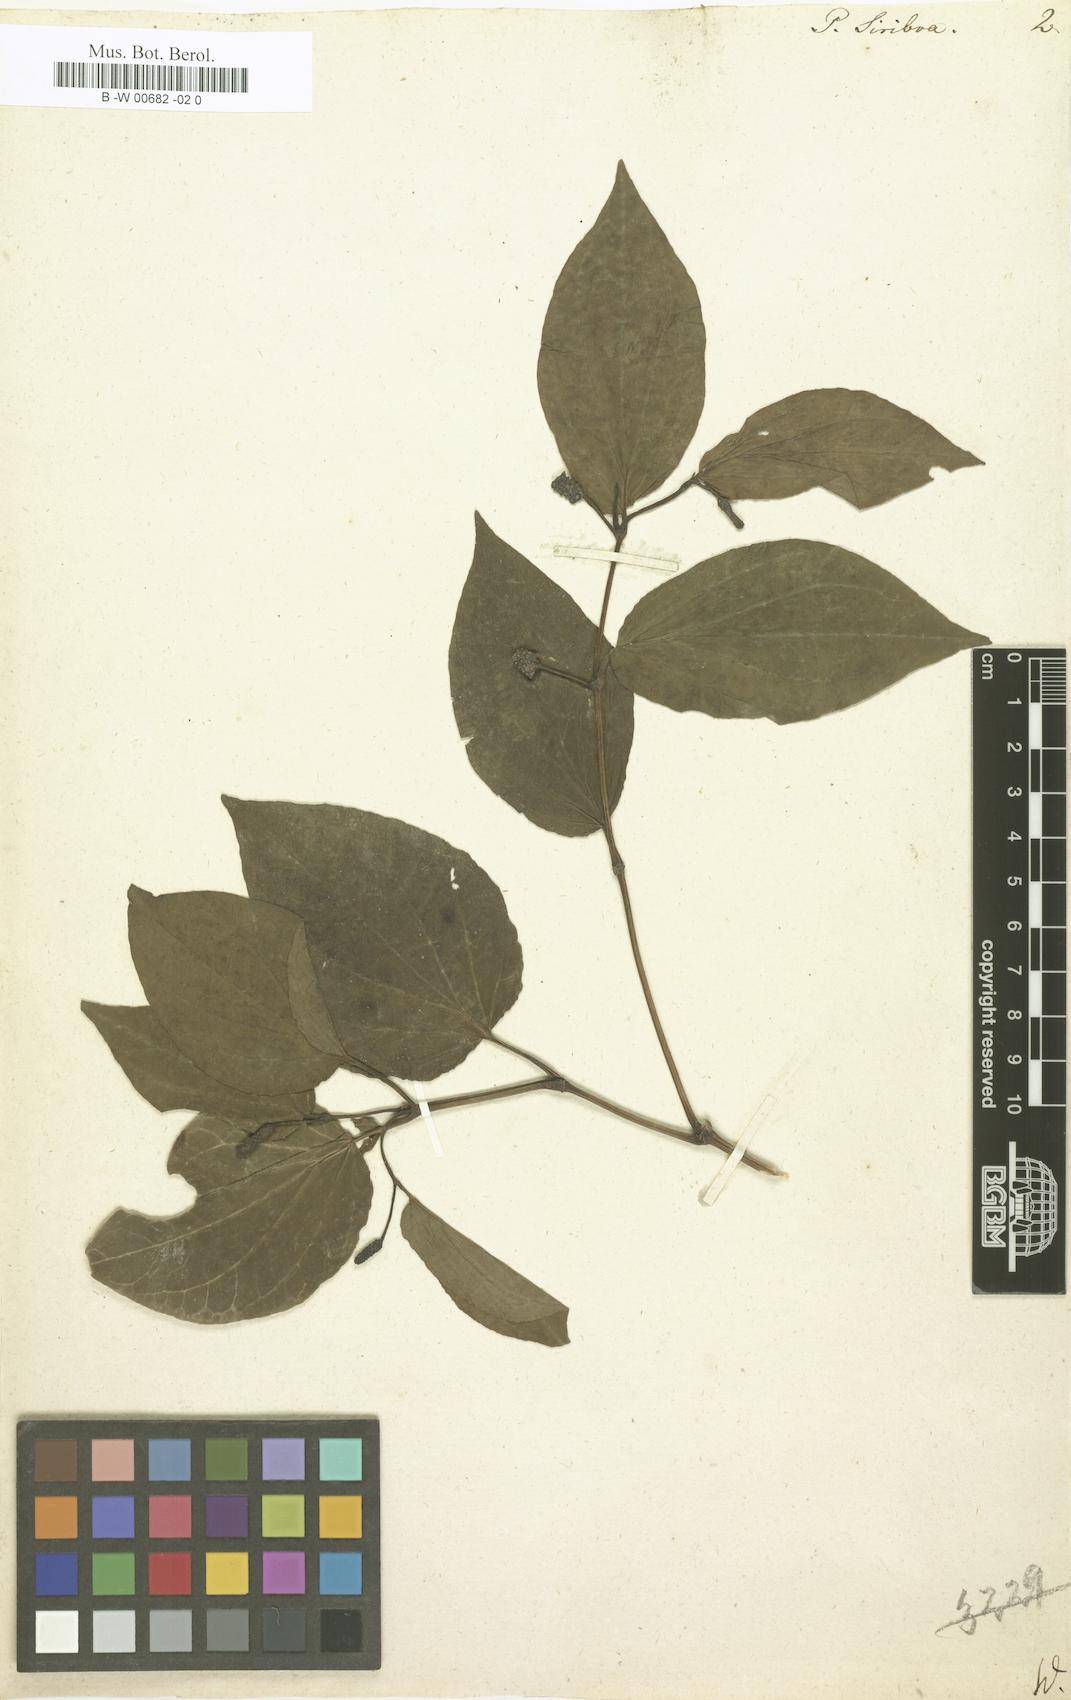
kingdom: Plantae
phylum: Tracheophyta
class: Magnoliopsida
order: Piperales
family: Piperaceae
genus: Piper
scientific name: Piper betle
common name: Betel pepper
